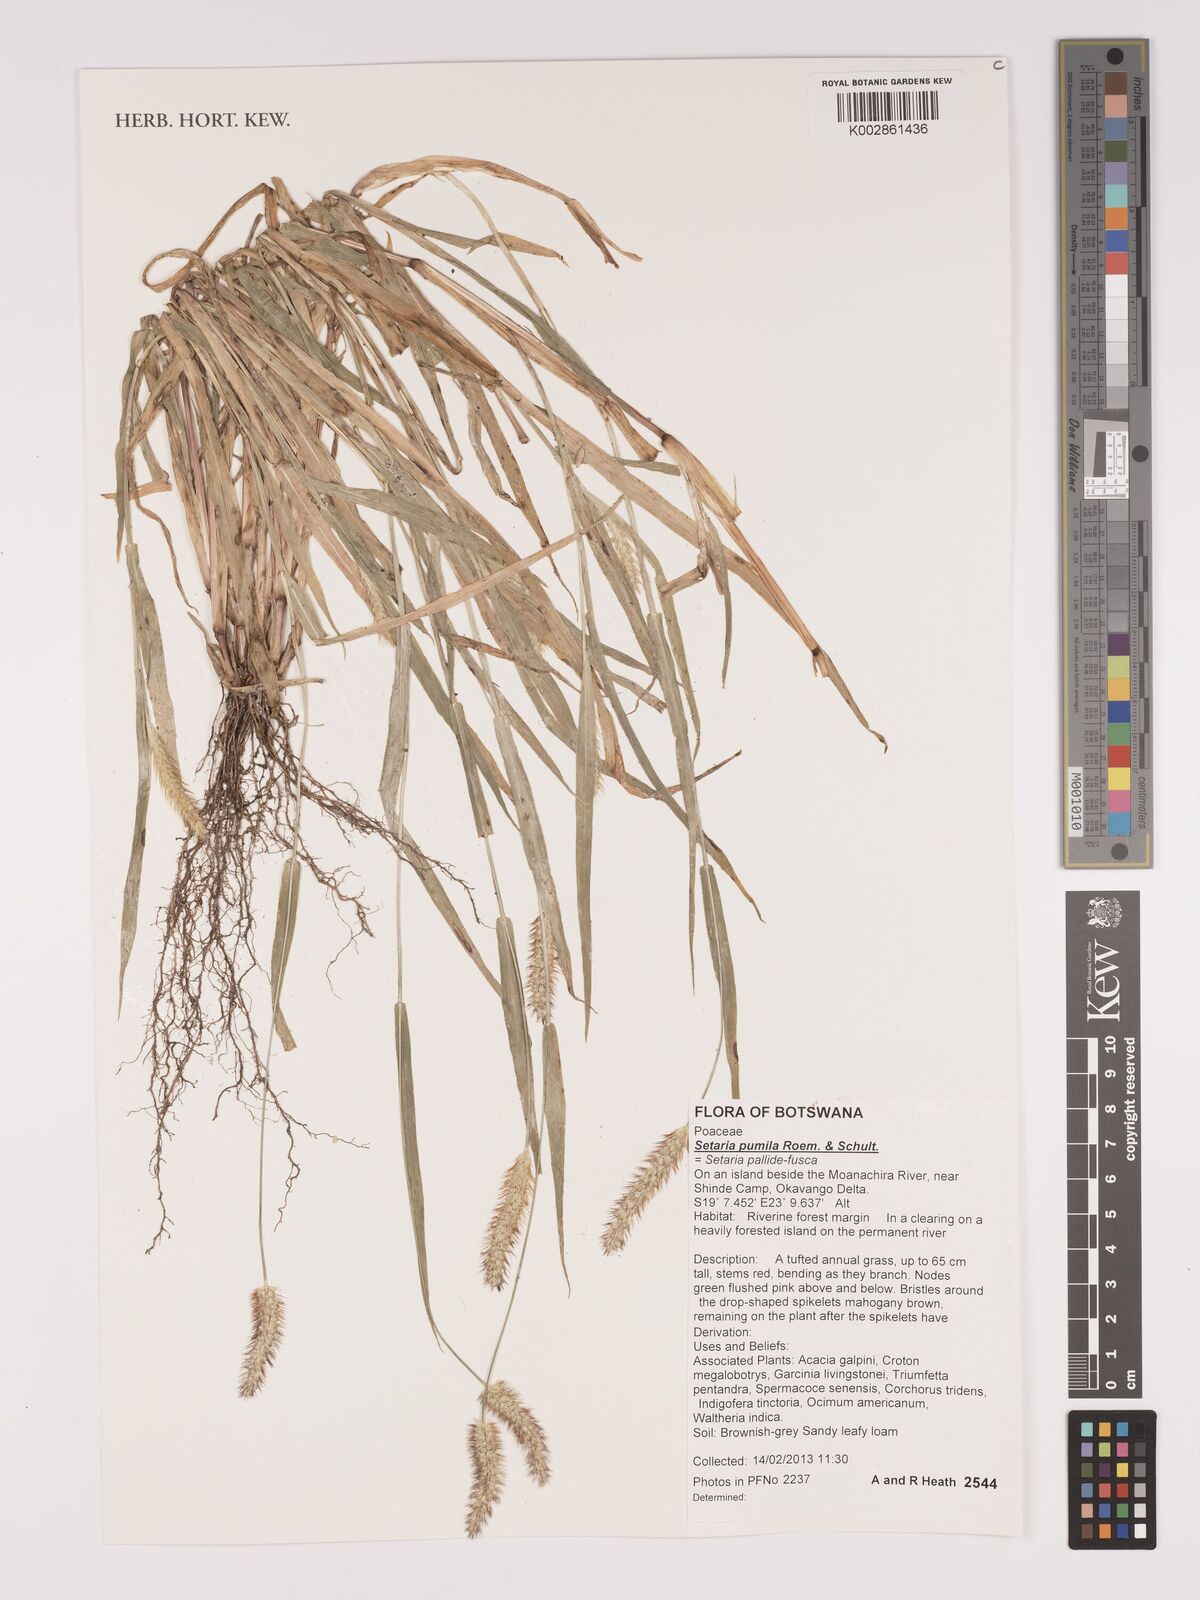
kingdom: Plantae
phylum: Tracheophyta
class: Liliopsida
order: Poales
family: Poaceae
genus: Setaria
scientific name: Setaria pumila
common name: Yellow bristle-grass
